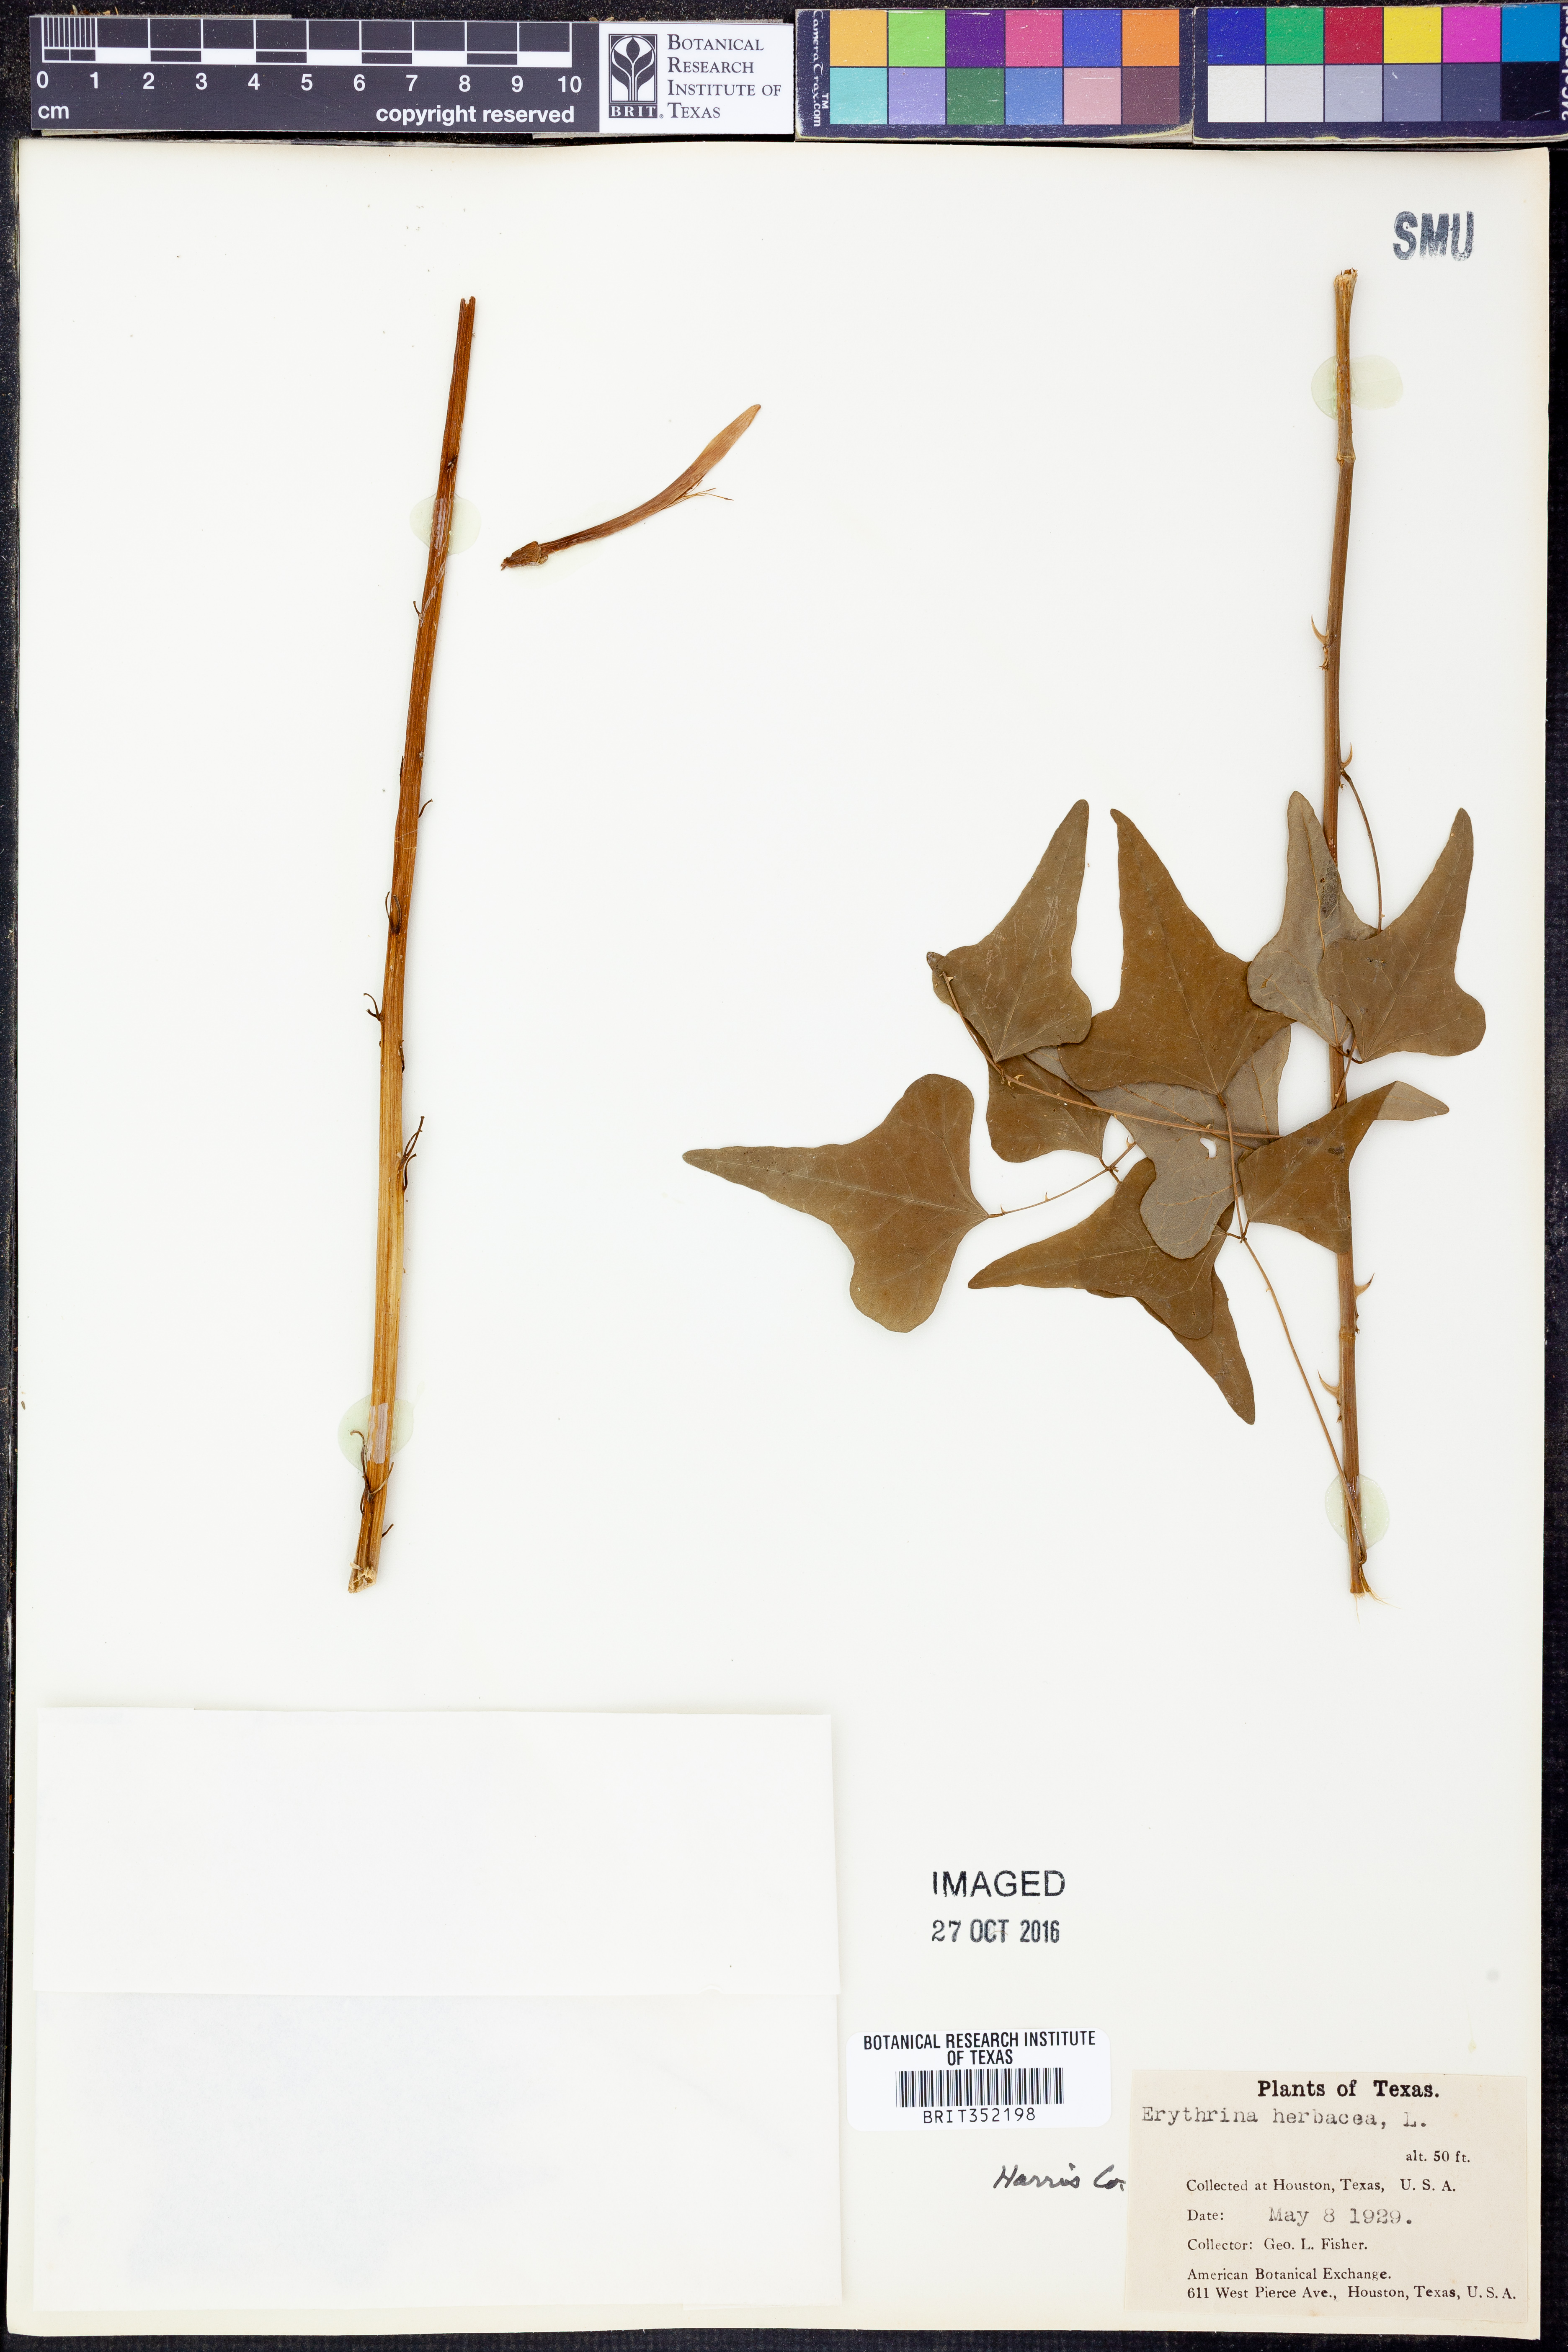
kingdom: Plantae
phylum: Tracheophyta
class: Magnoliopsida
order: Fabales
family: Fabaceae
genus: Erythrina
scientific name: Erythrina herbacea
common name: Coral-bean
